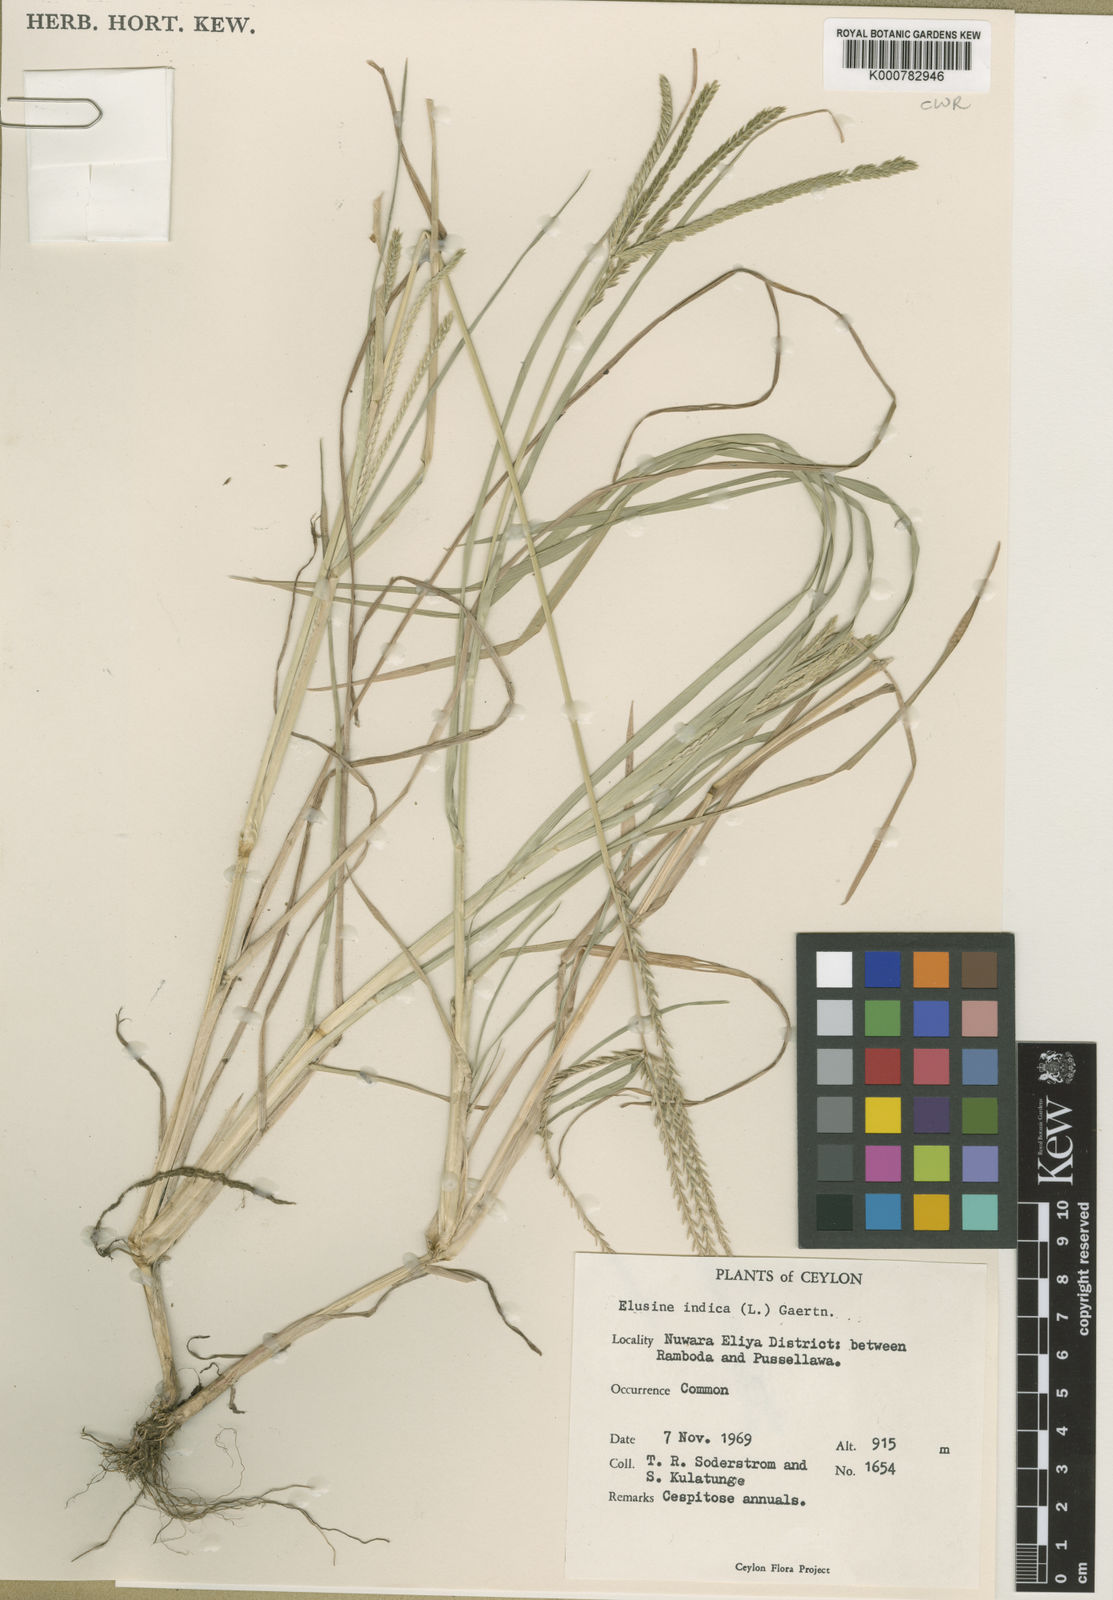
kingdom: Plantae
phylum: Tracheophyta
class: Liliopsida
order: Poales
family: Poaceae
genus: Eleusine
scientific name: Eleusine indica
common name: Yard-grass
